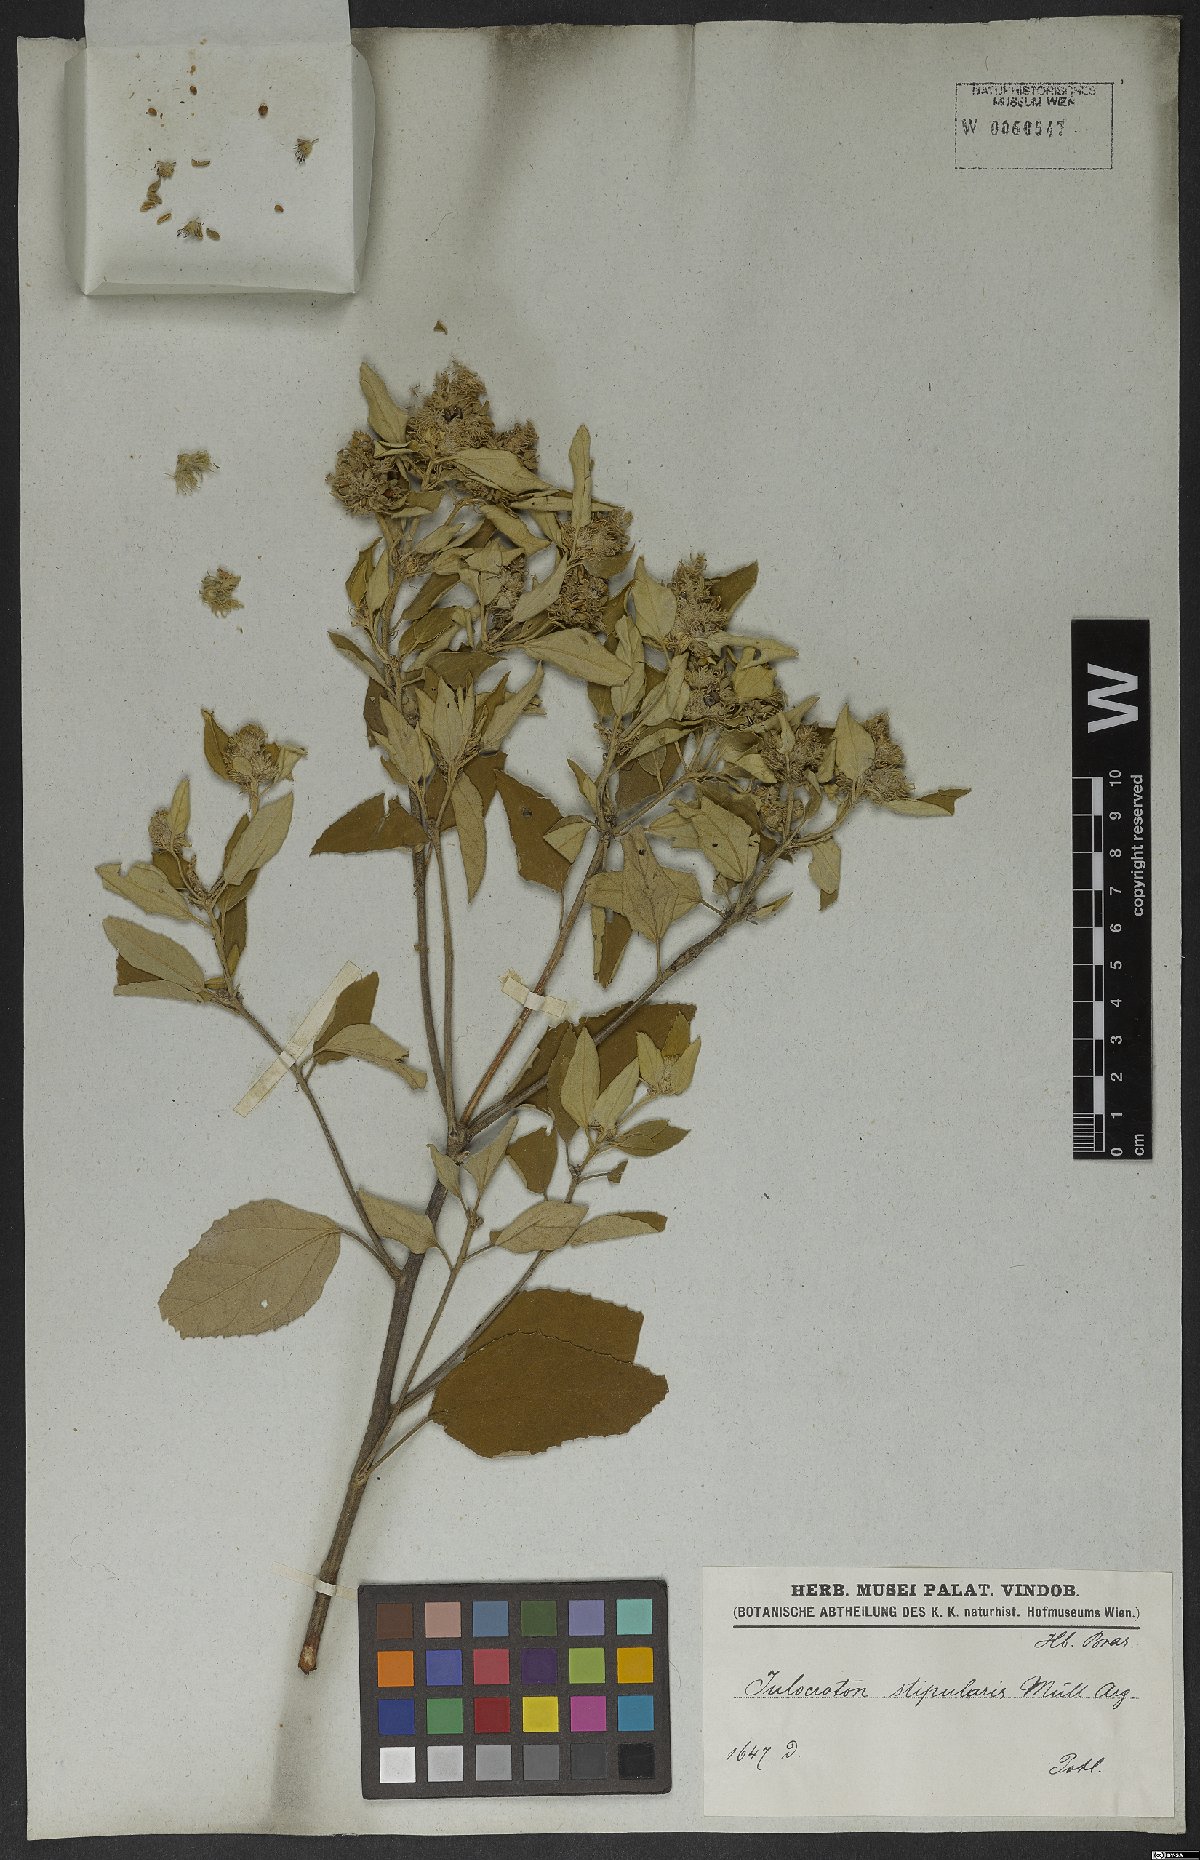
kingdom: Plantae
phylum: Tracheophyta
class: Magnoliopsida
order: Malpighiales
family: Euphorbiaceae
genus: Croton
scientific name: Croton stipularis
